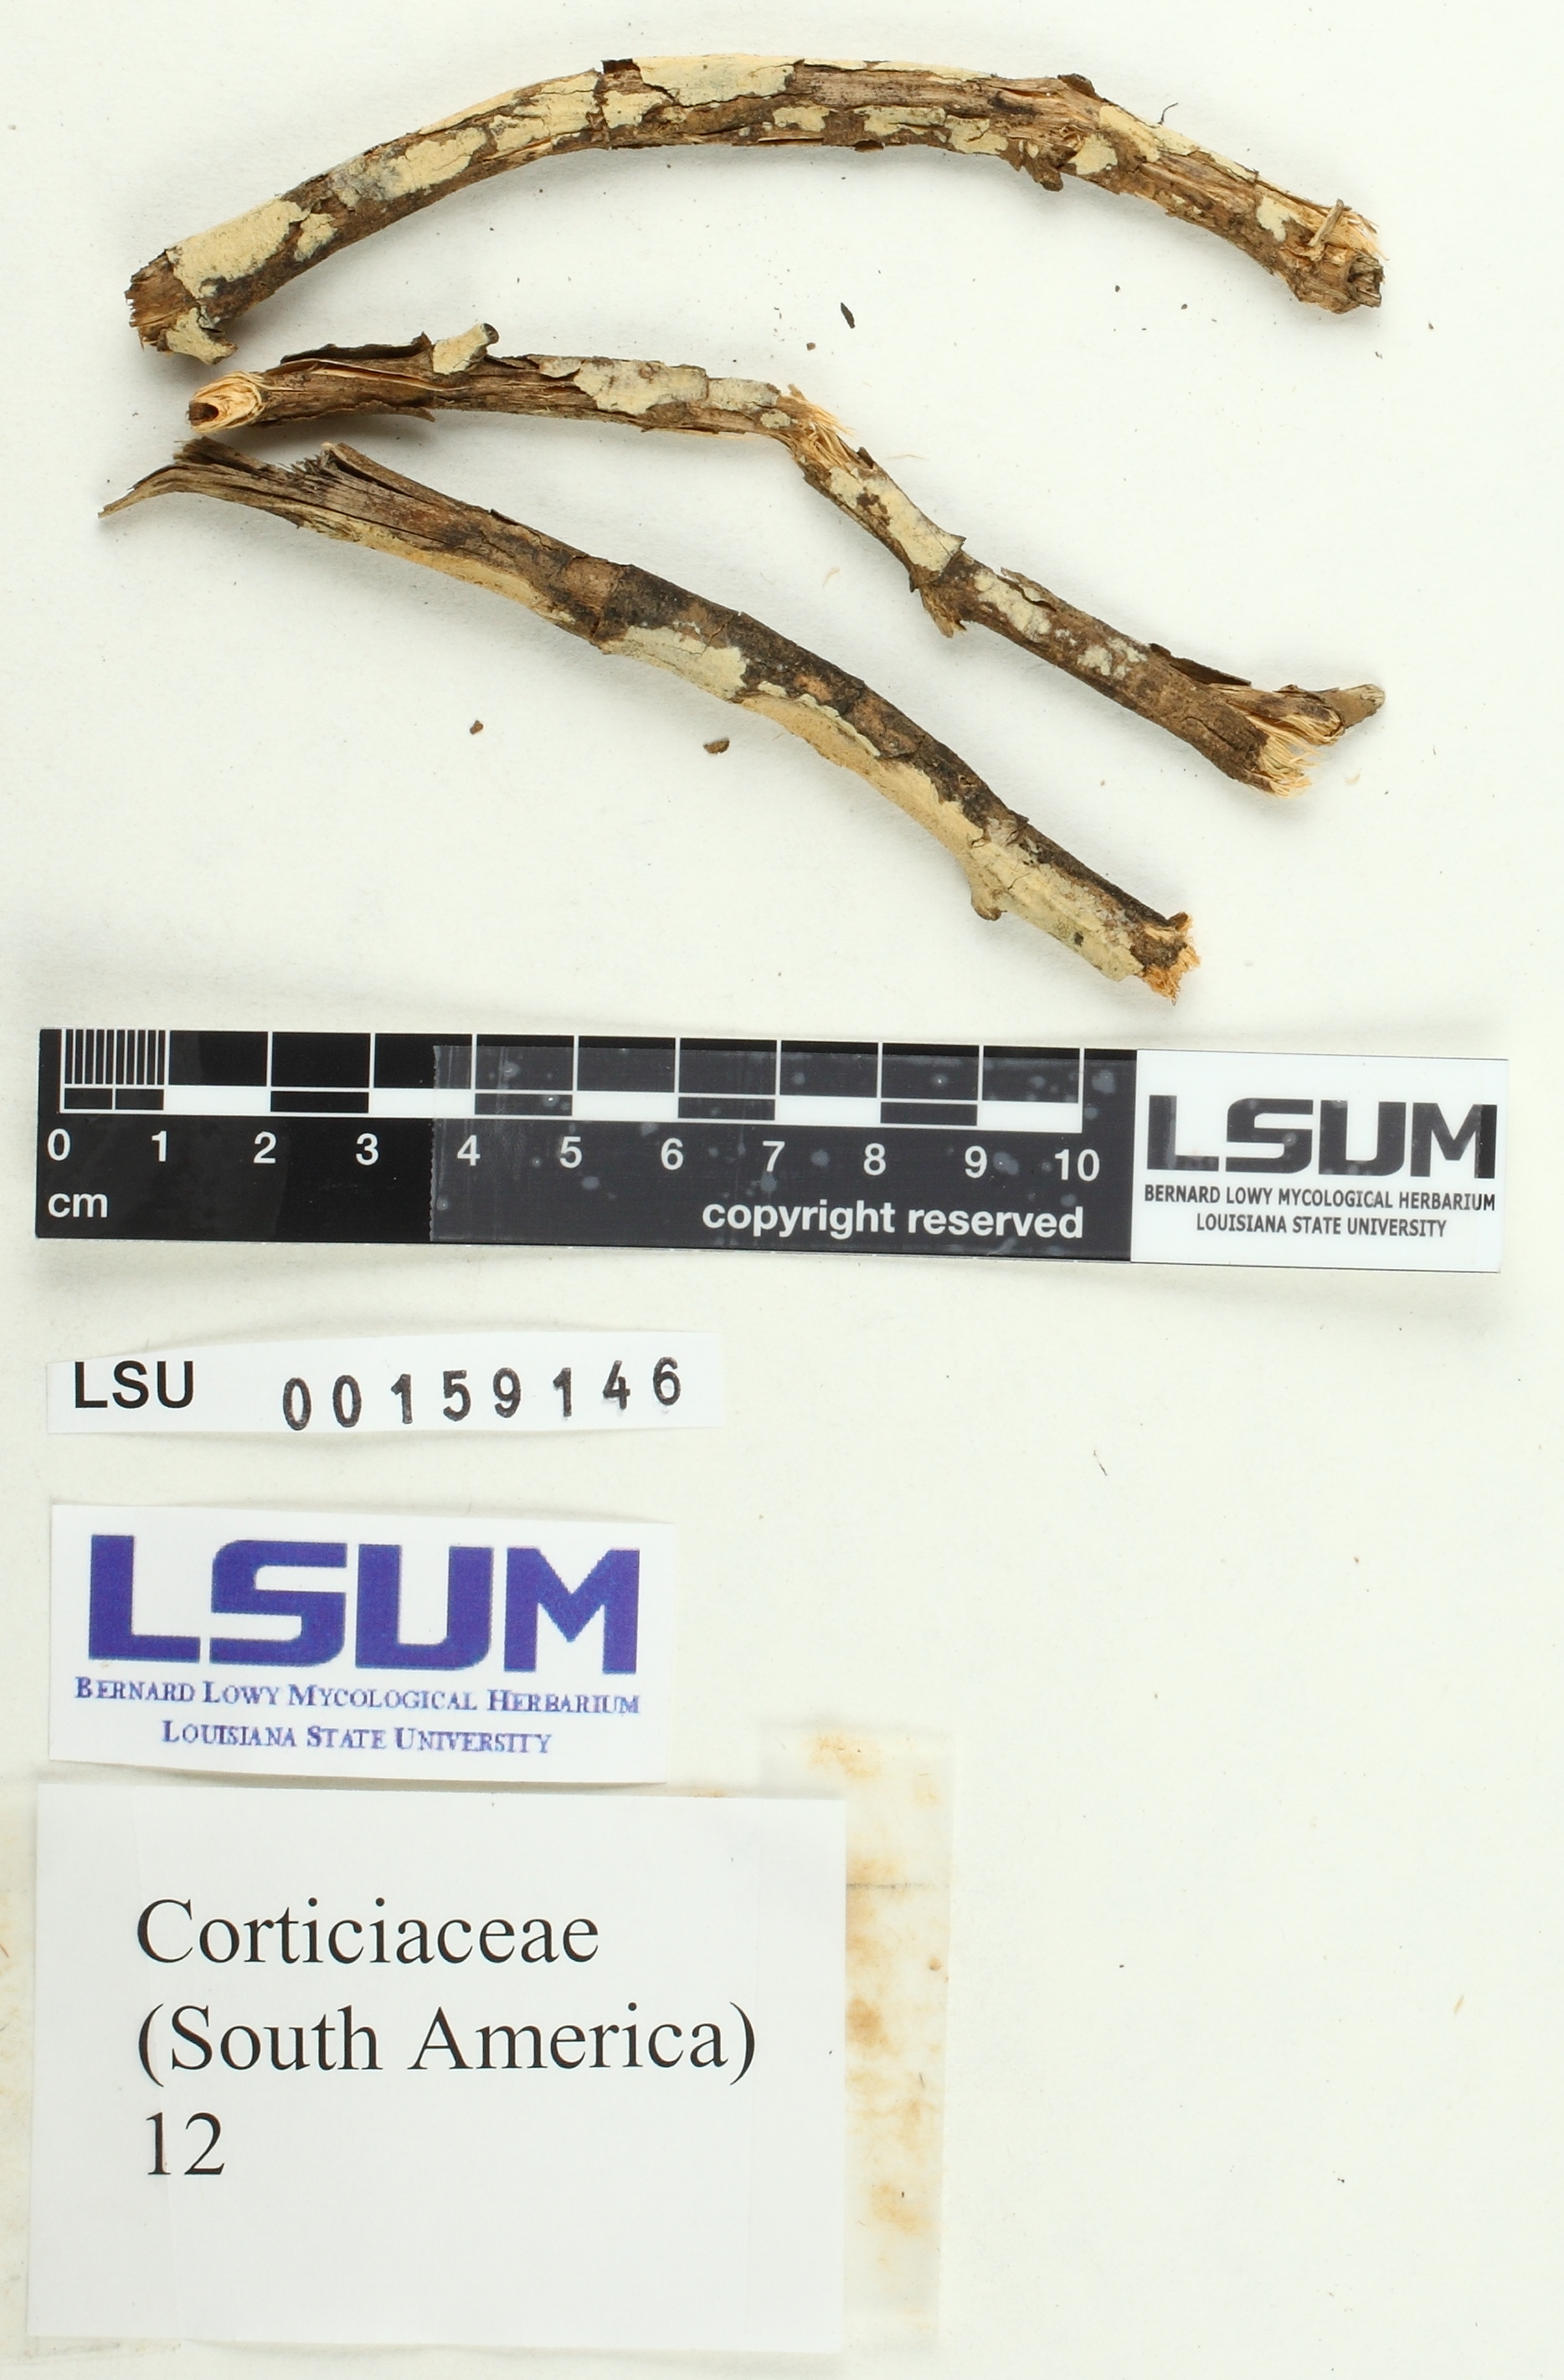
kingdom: Fungi
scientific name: Fungi
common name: Fungi
